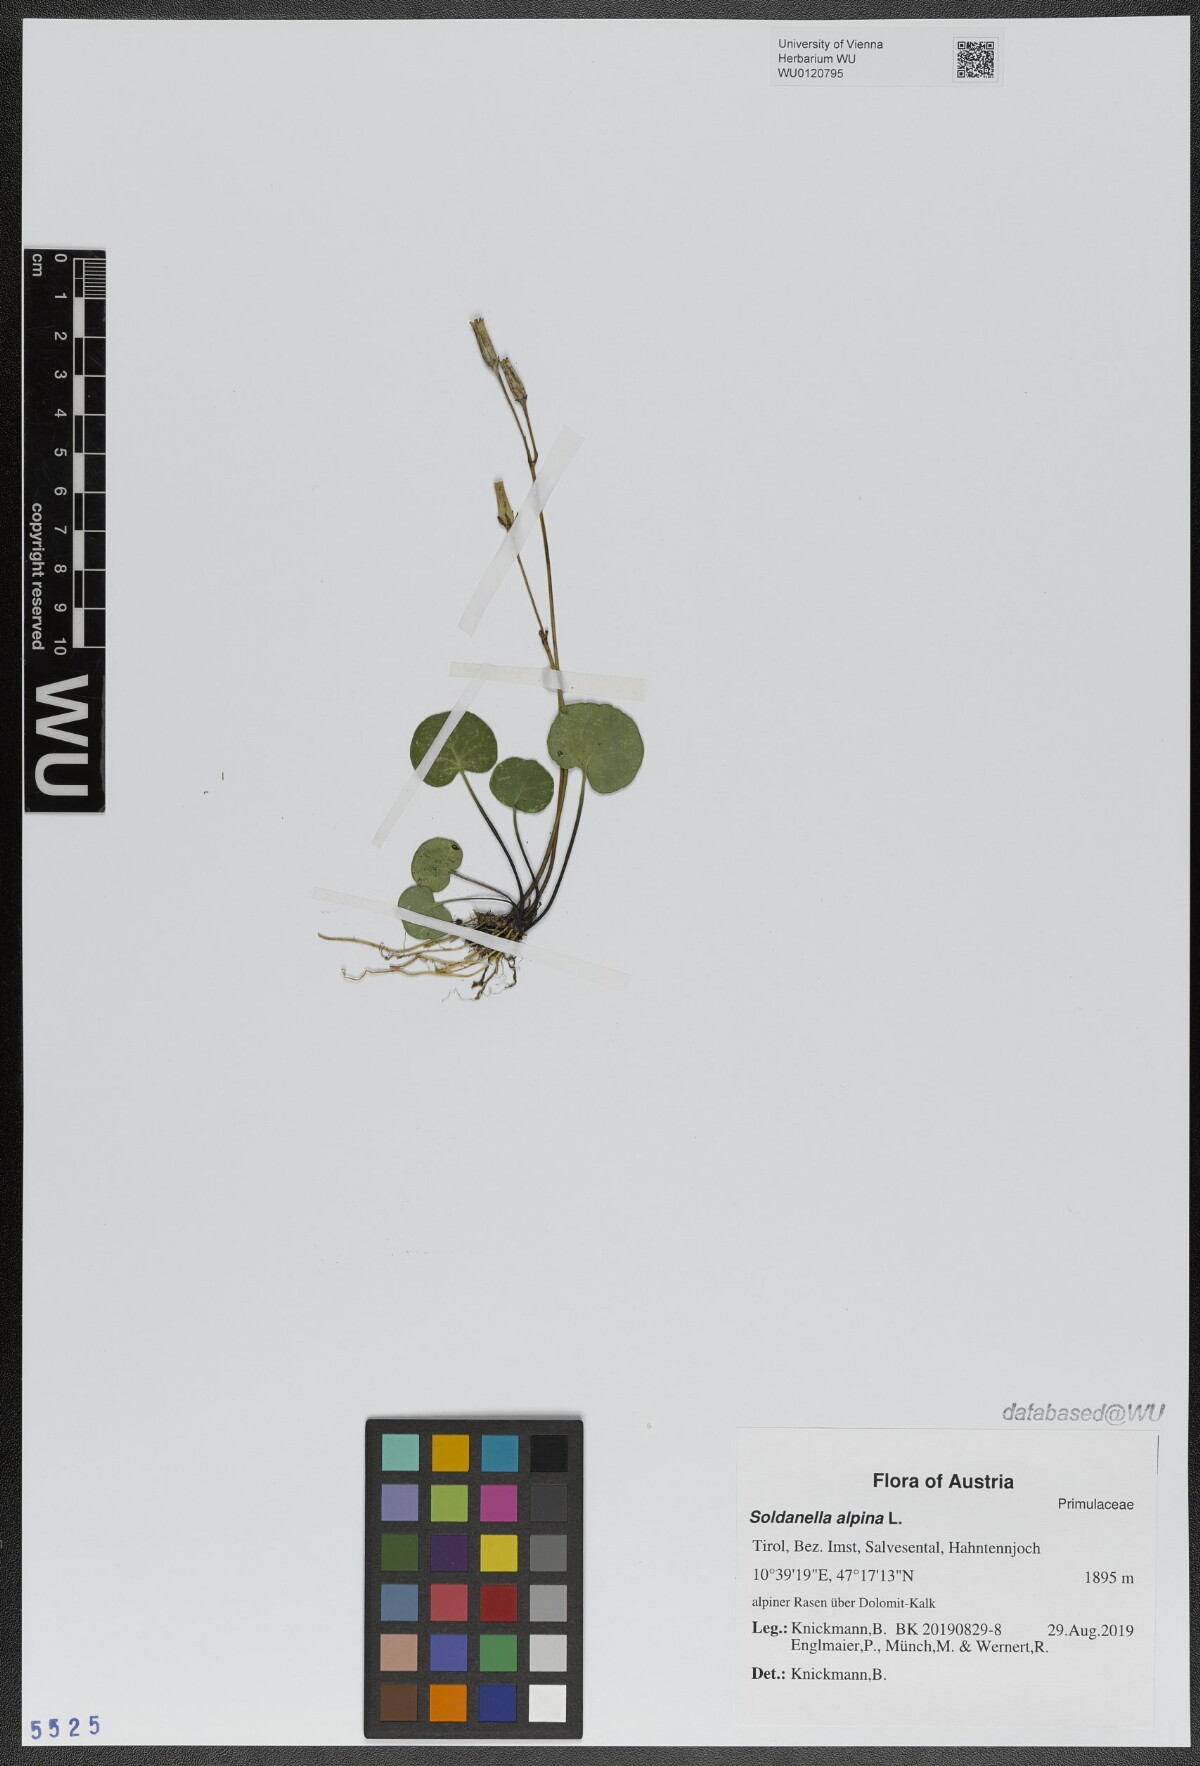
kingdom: Plantae
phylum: Tracheophyta
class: Magnoliopsida
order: Ericales
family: Primulaceae
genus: Soldanella
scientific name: Soldanella alpina
